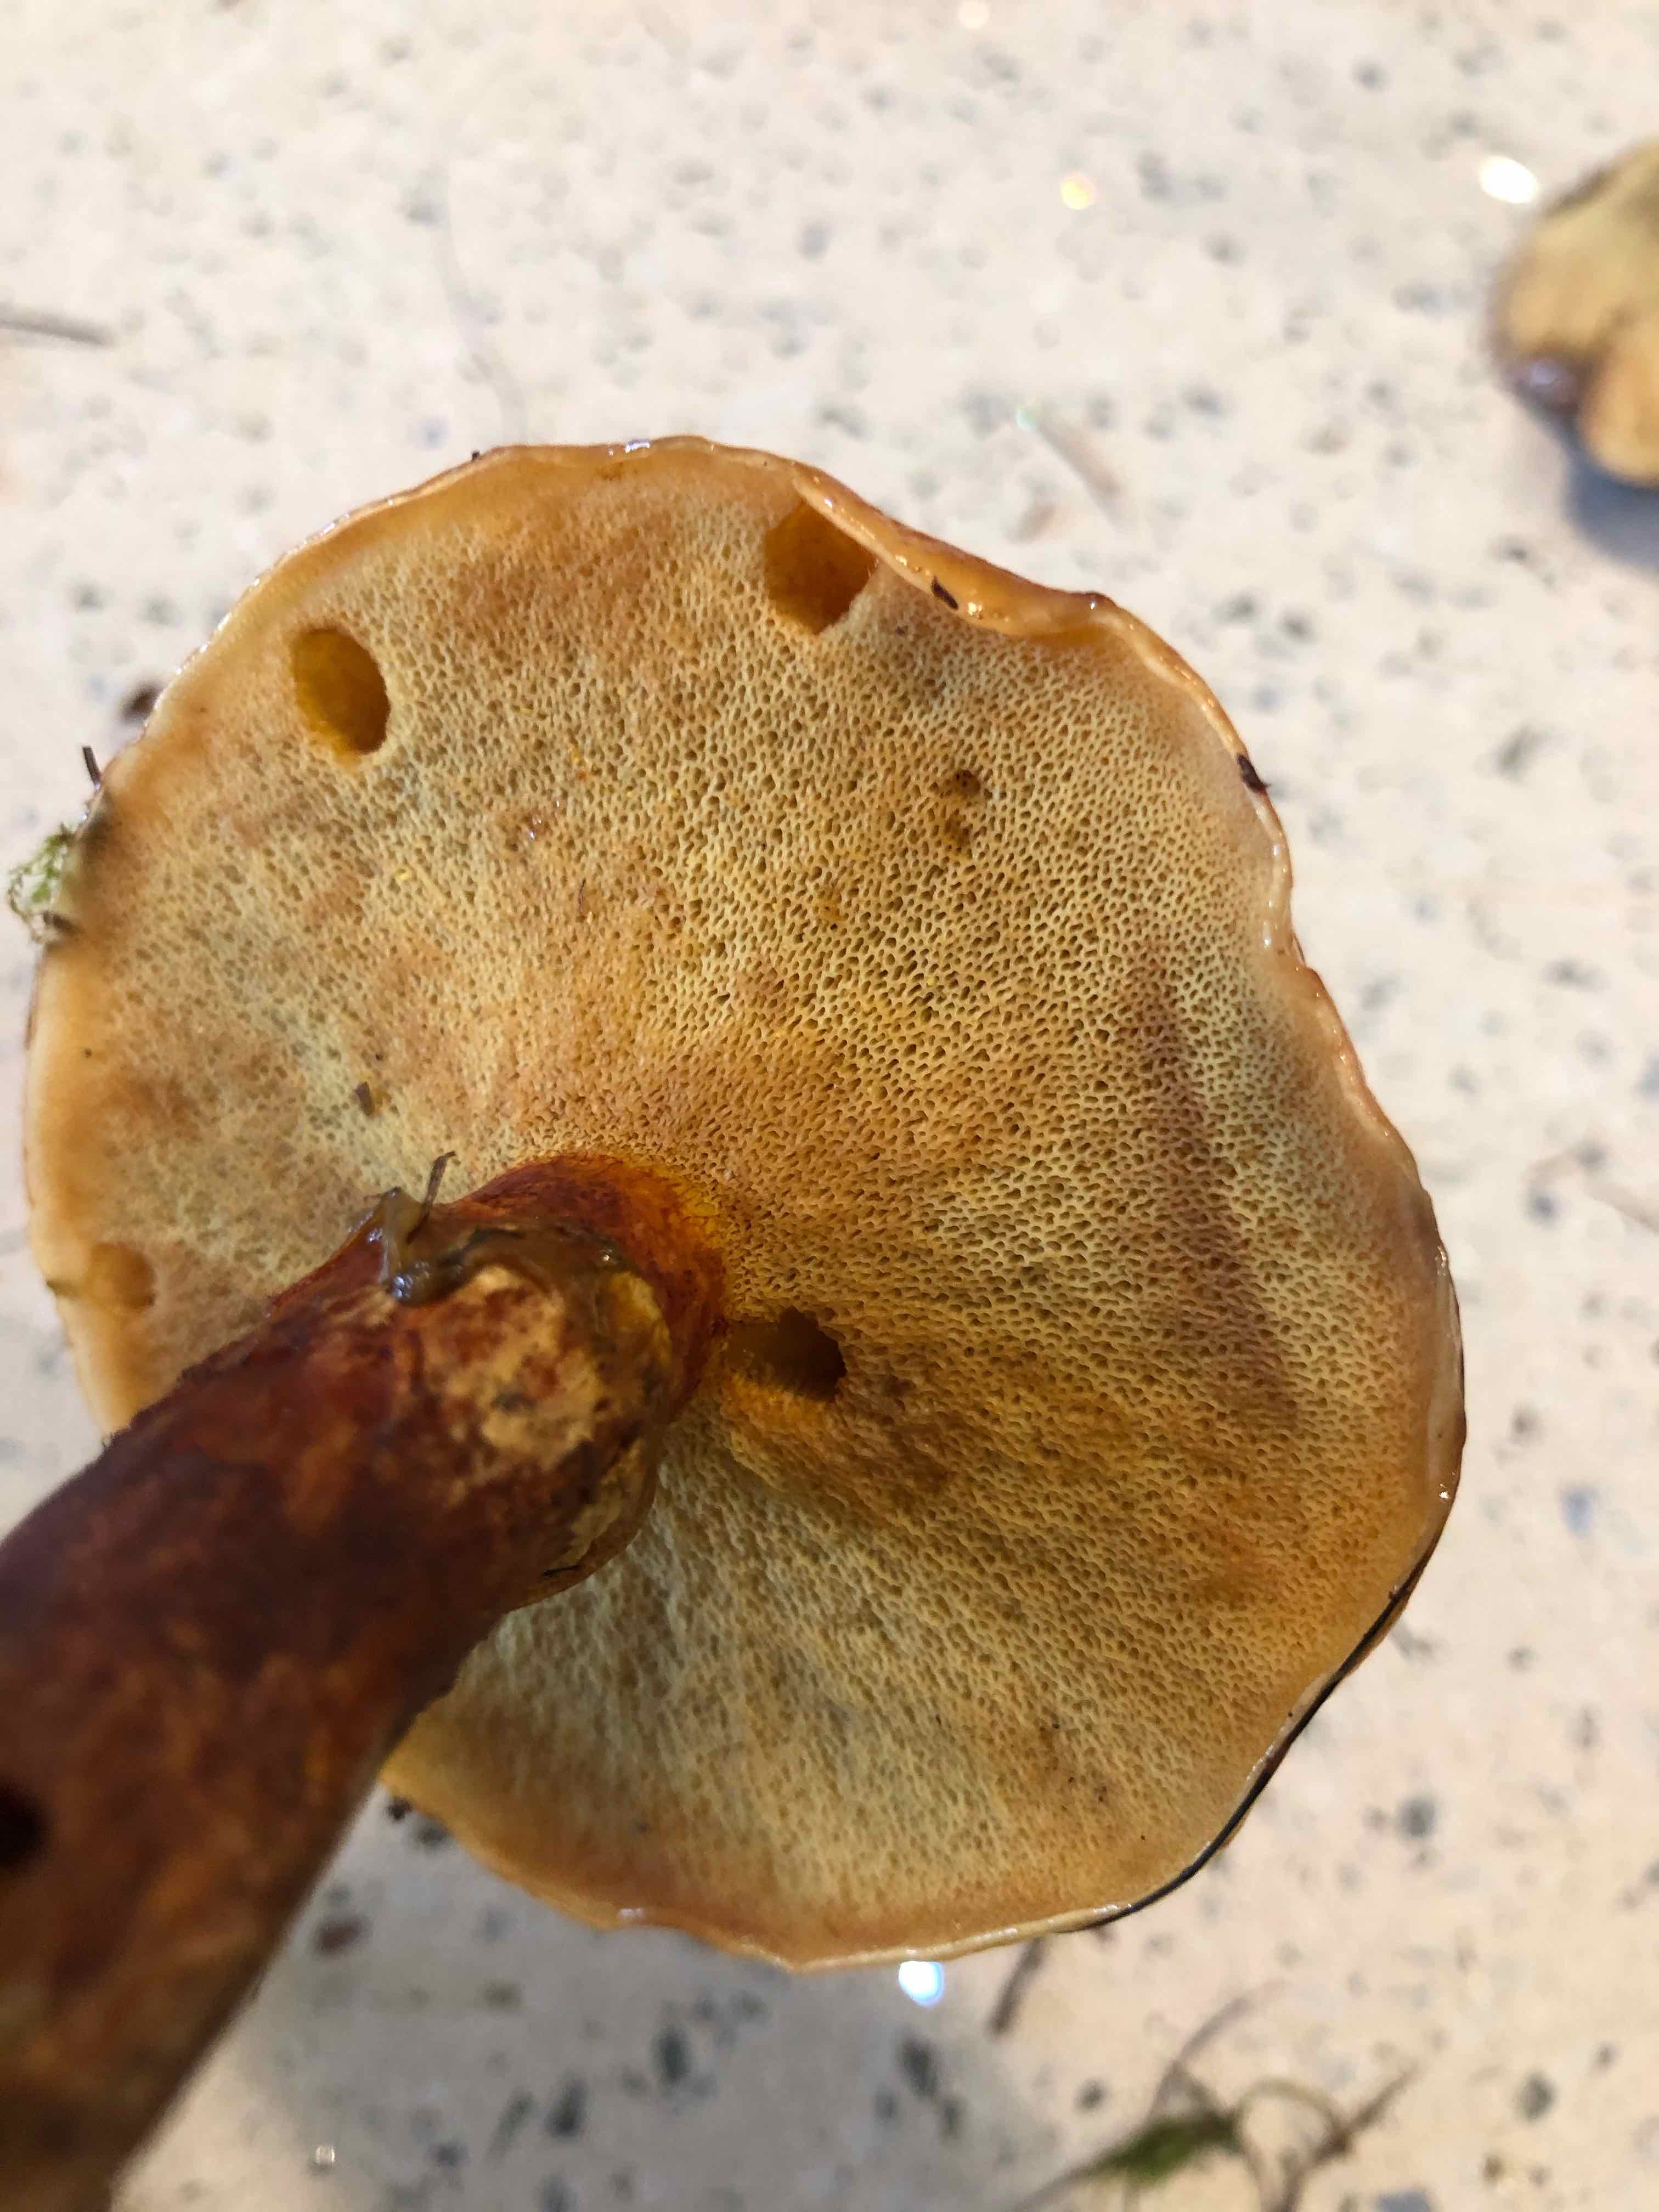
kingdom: Fungi
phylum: Basidiomycota
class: Agaricomycetes
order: Boletales
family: Suillaceae
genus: Suillus
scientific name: Suillus grevillei
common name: lærke-slimrørhat
